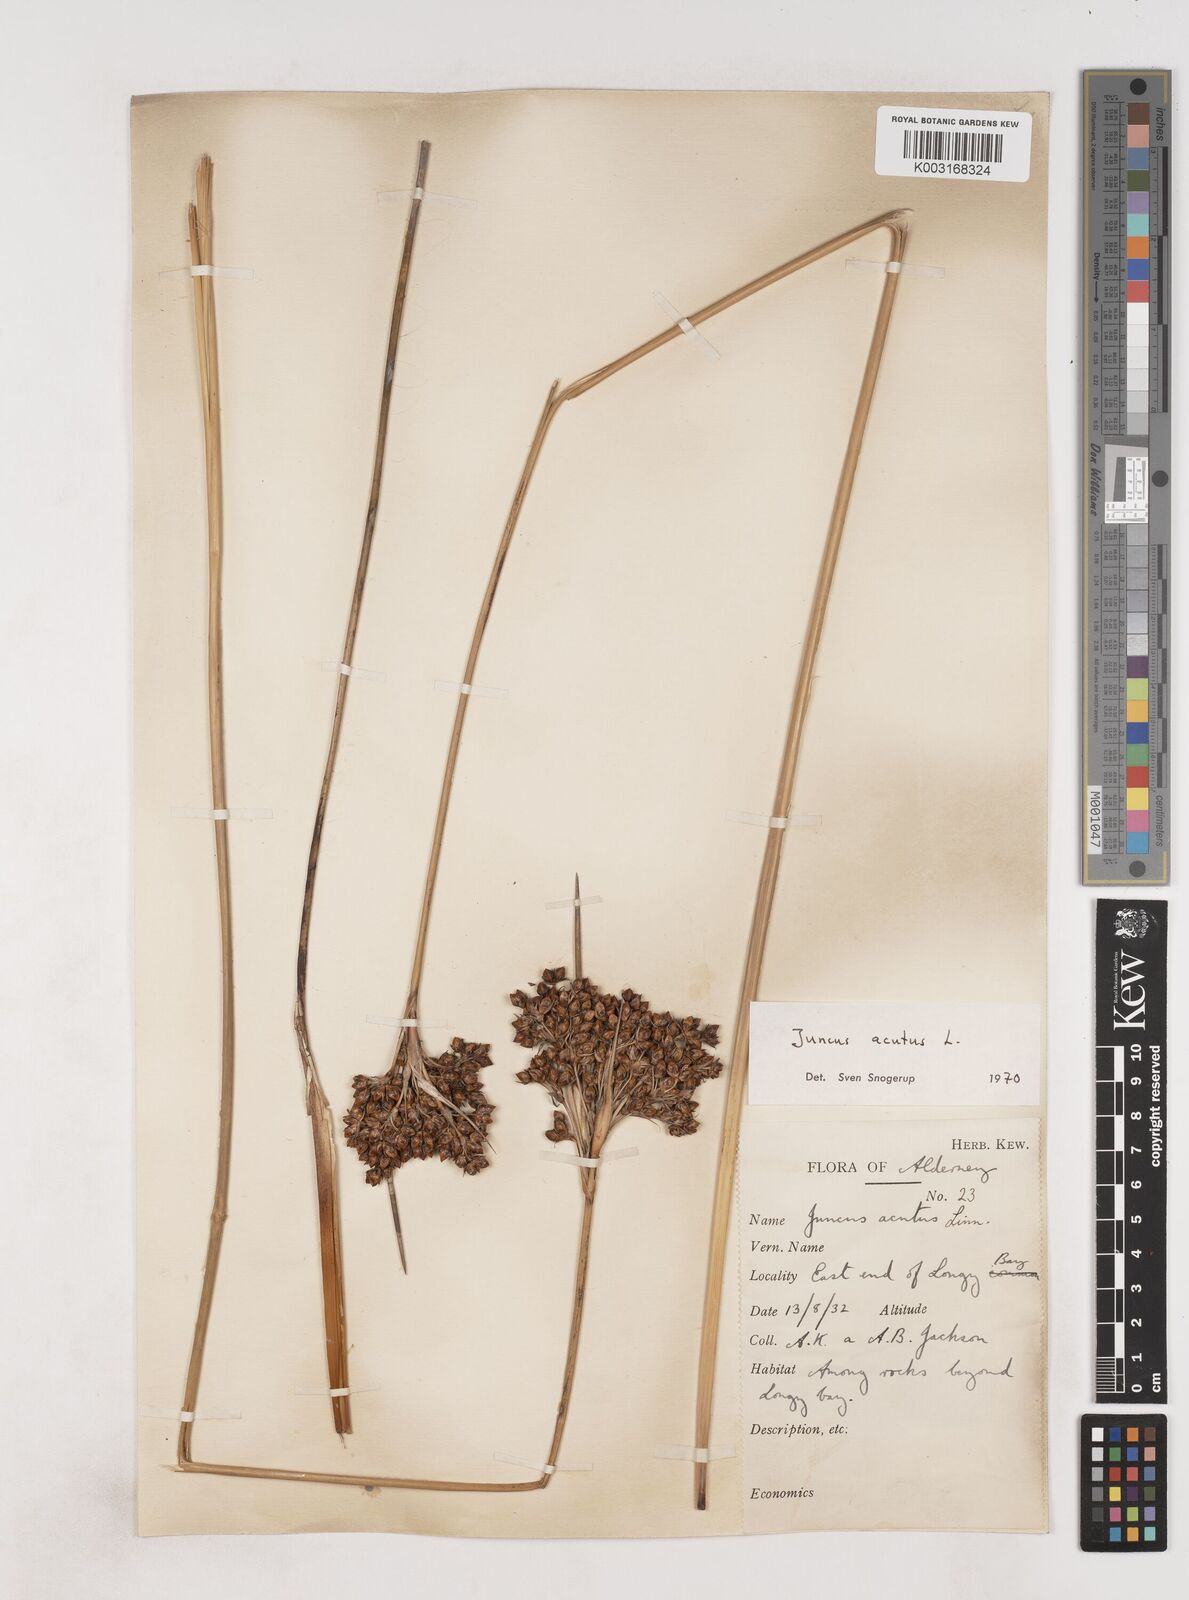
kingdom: Plantae
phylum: Tracheophyta
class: Liliopsida
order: Poales
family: Juncaceae
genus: Juncus
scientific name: Juncus acutus
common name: Sharp rush
